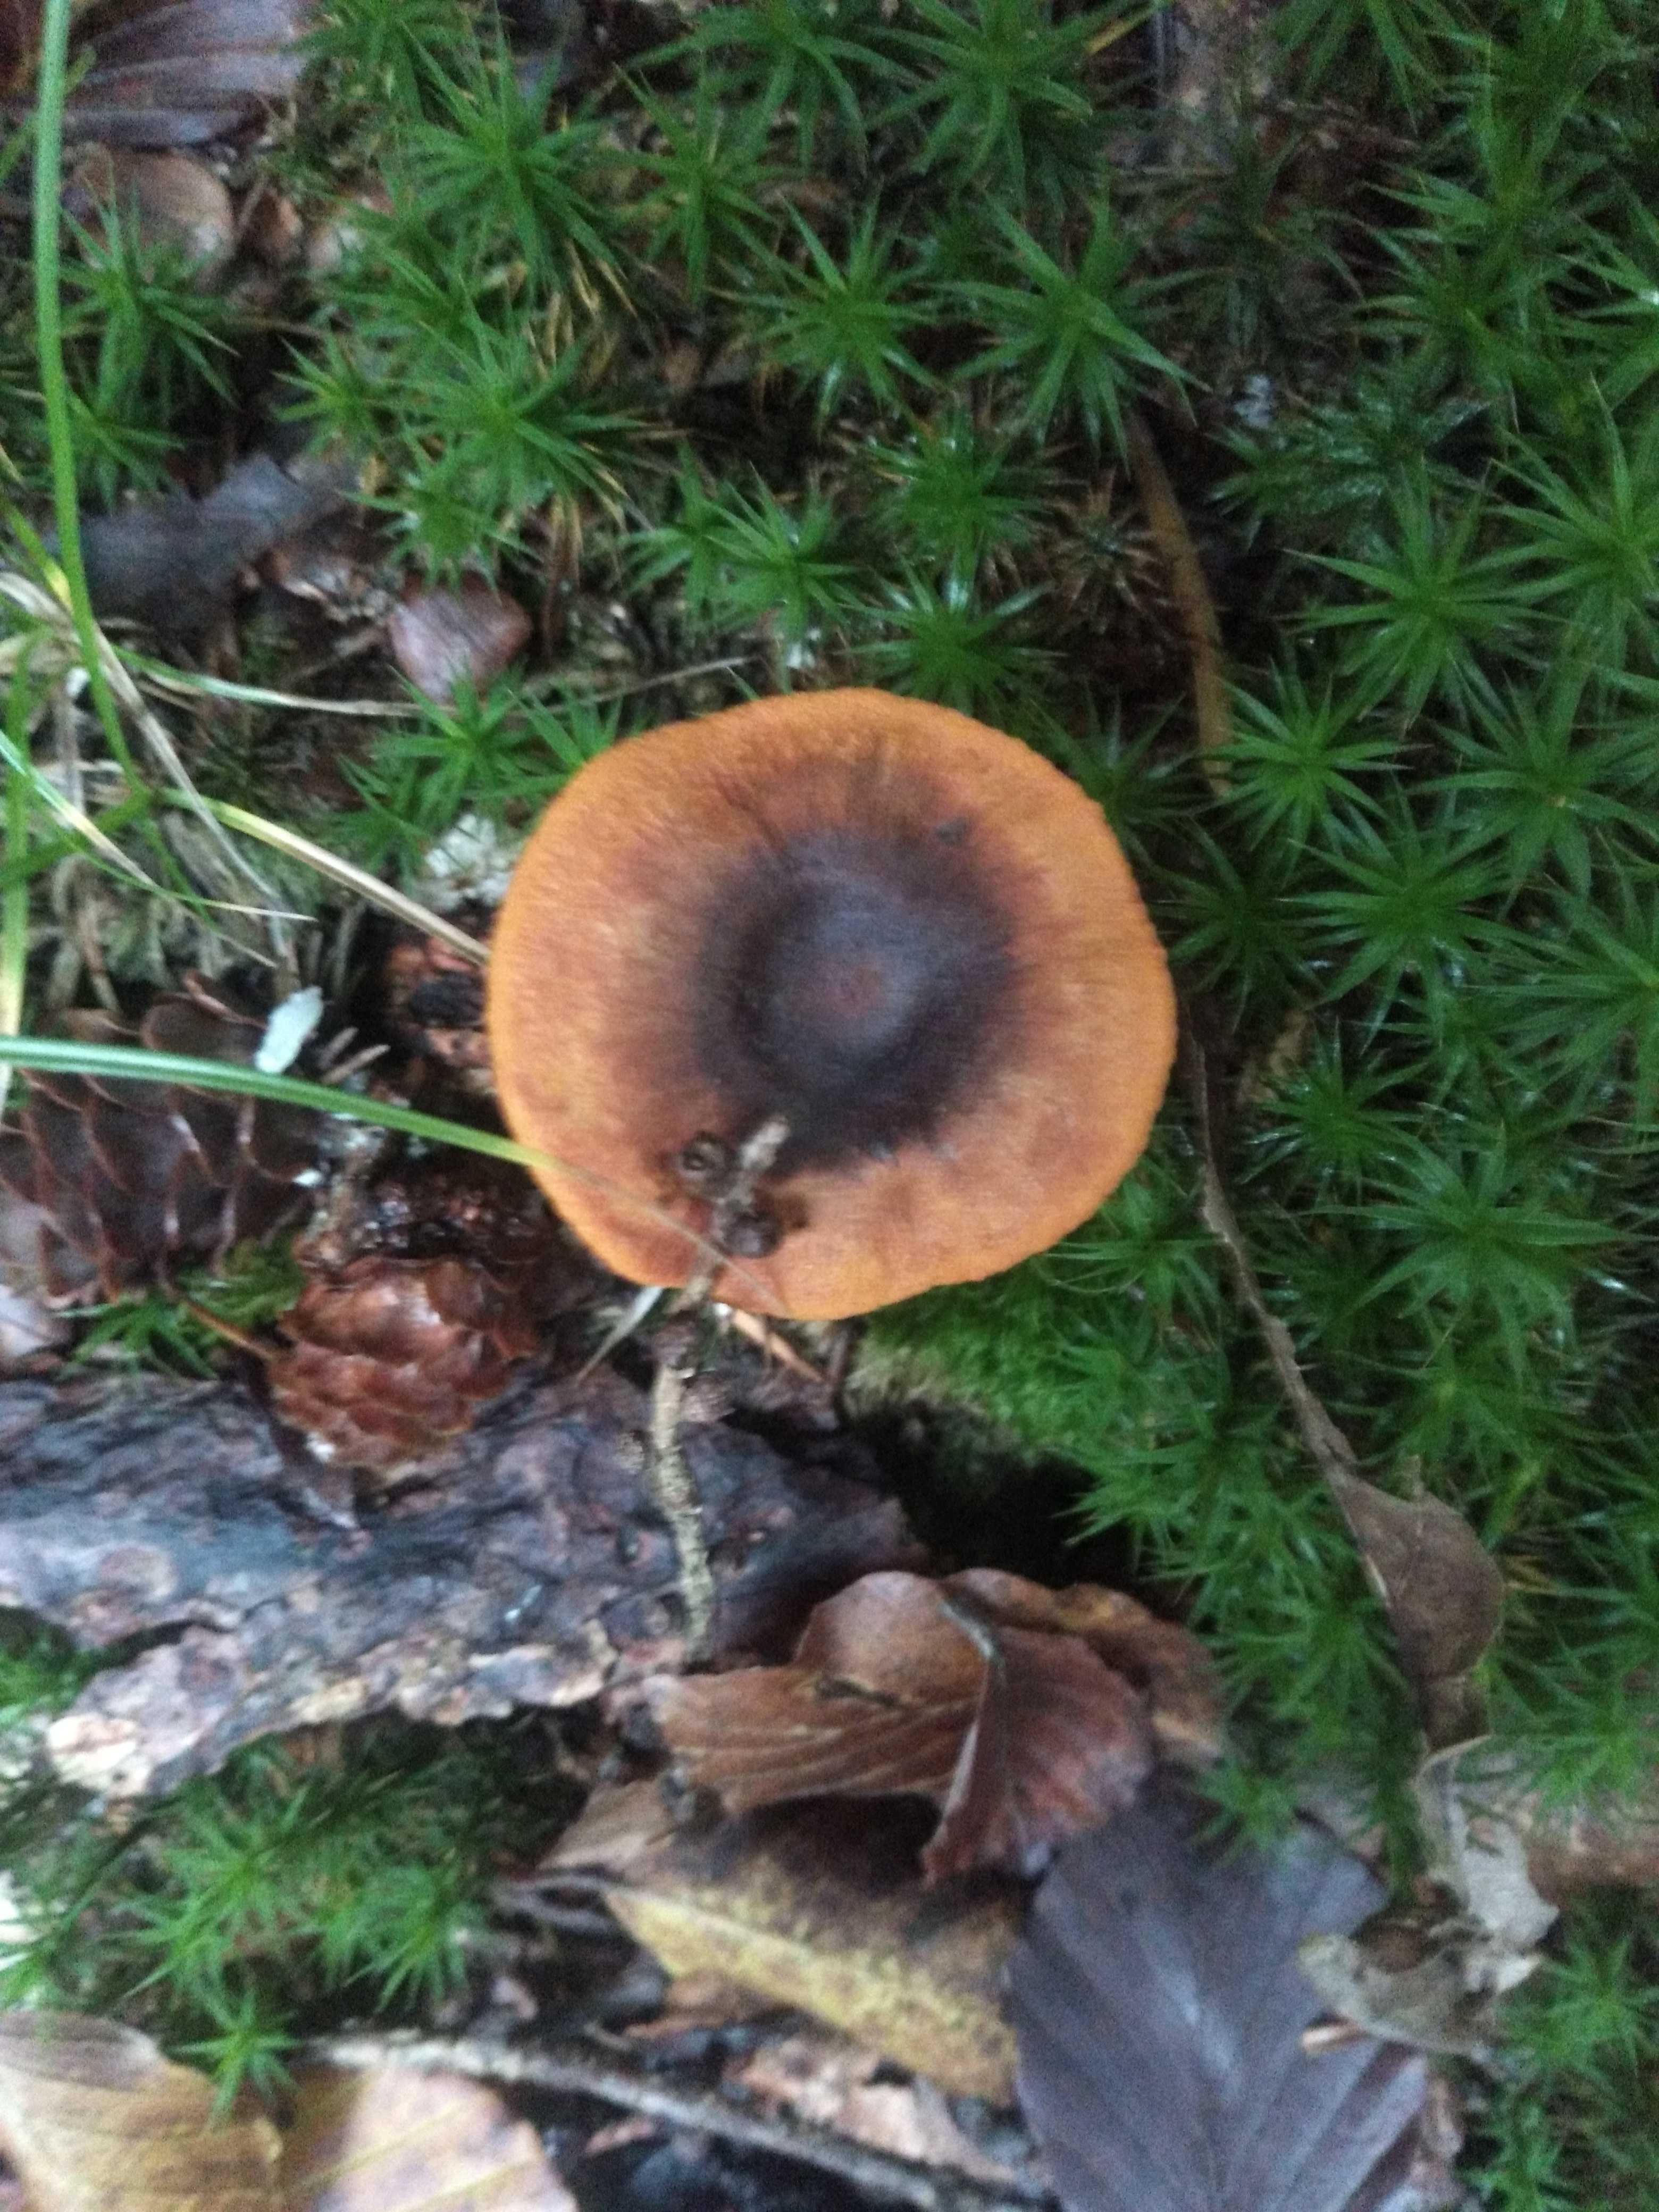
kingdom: Fungi
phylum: Basidiomycota
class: Agaricomycetes
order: Agaricales
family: Cortinariaceae
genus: Cortinarius
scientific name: Cortinarius malicorius
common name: grønkødet slørhat
